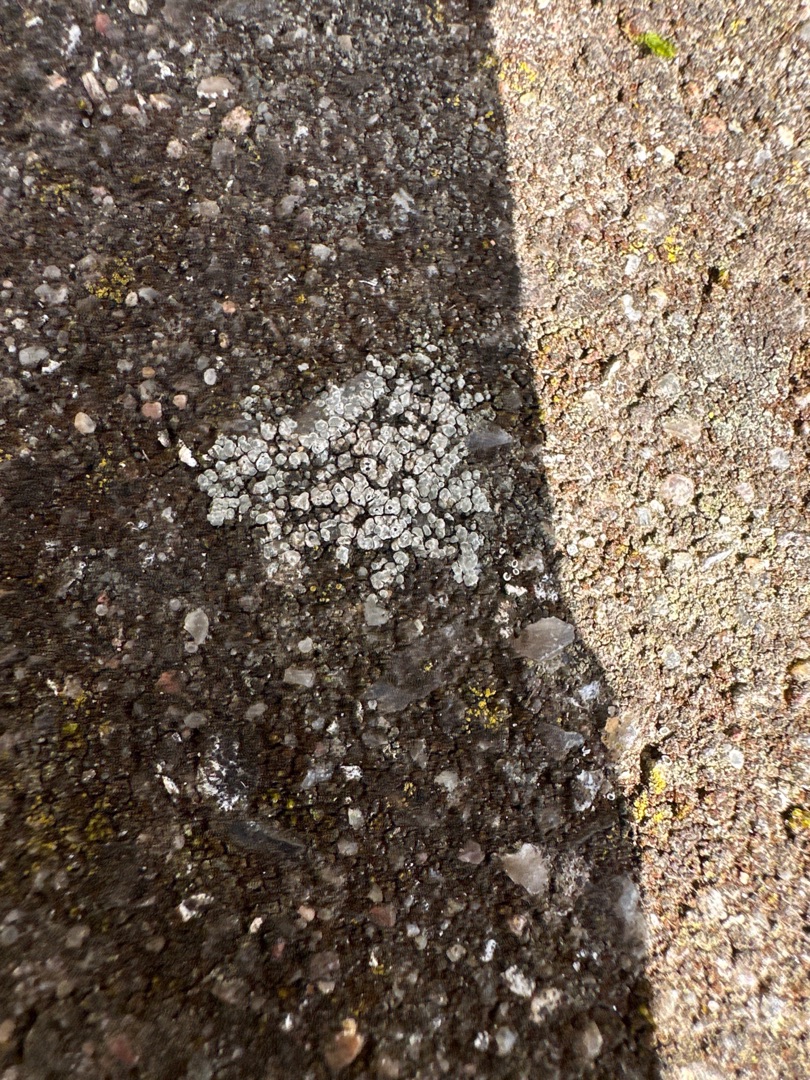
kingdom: Fungi
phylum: Ascomycota
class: Lecanoromycetes
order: Pertusariales
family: Megasporaceae
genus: Circinaria
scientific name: Circinaria contorta
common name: Indviklet hulskivelav
